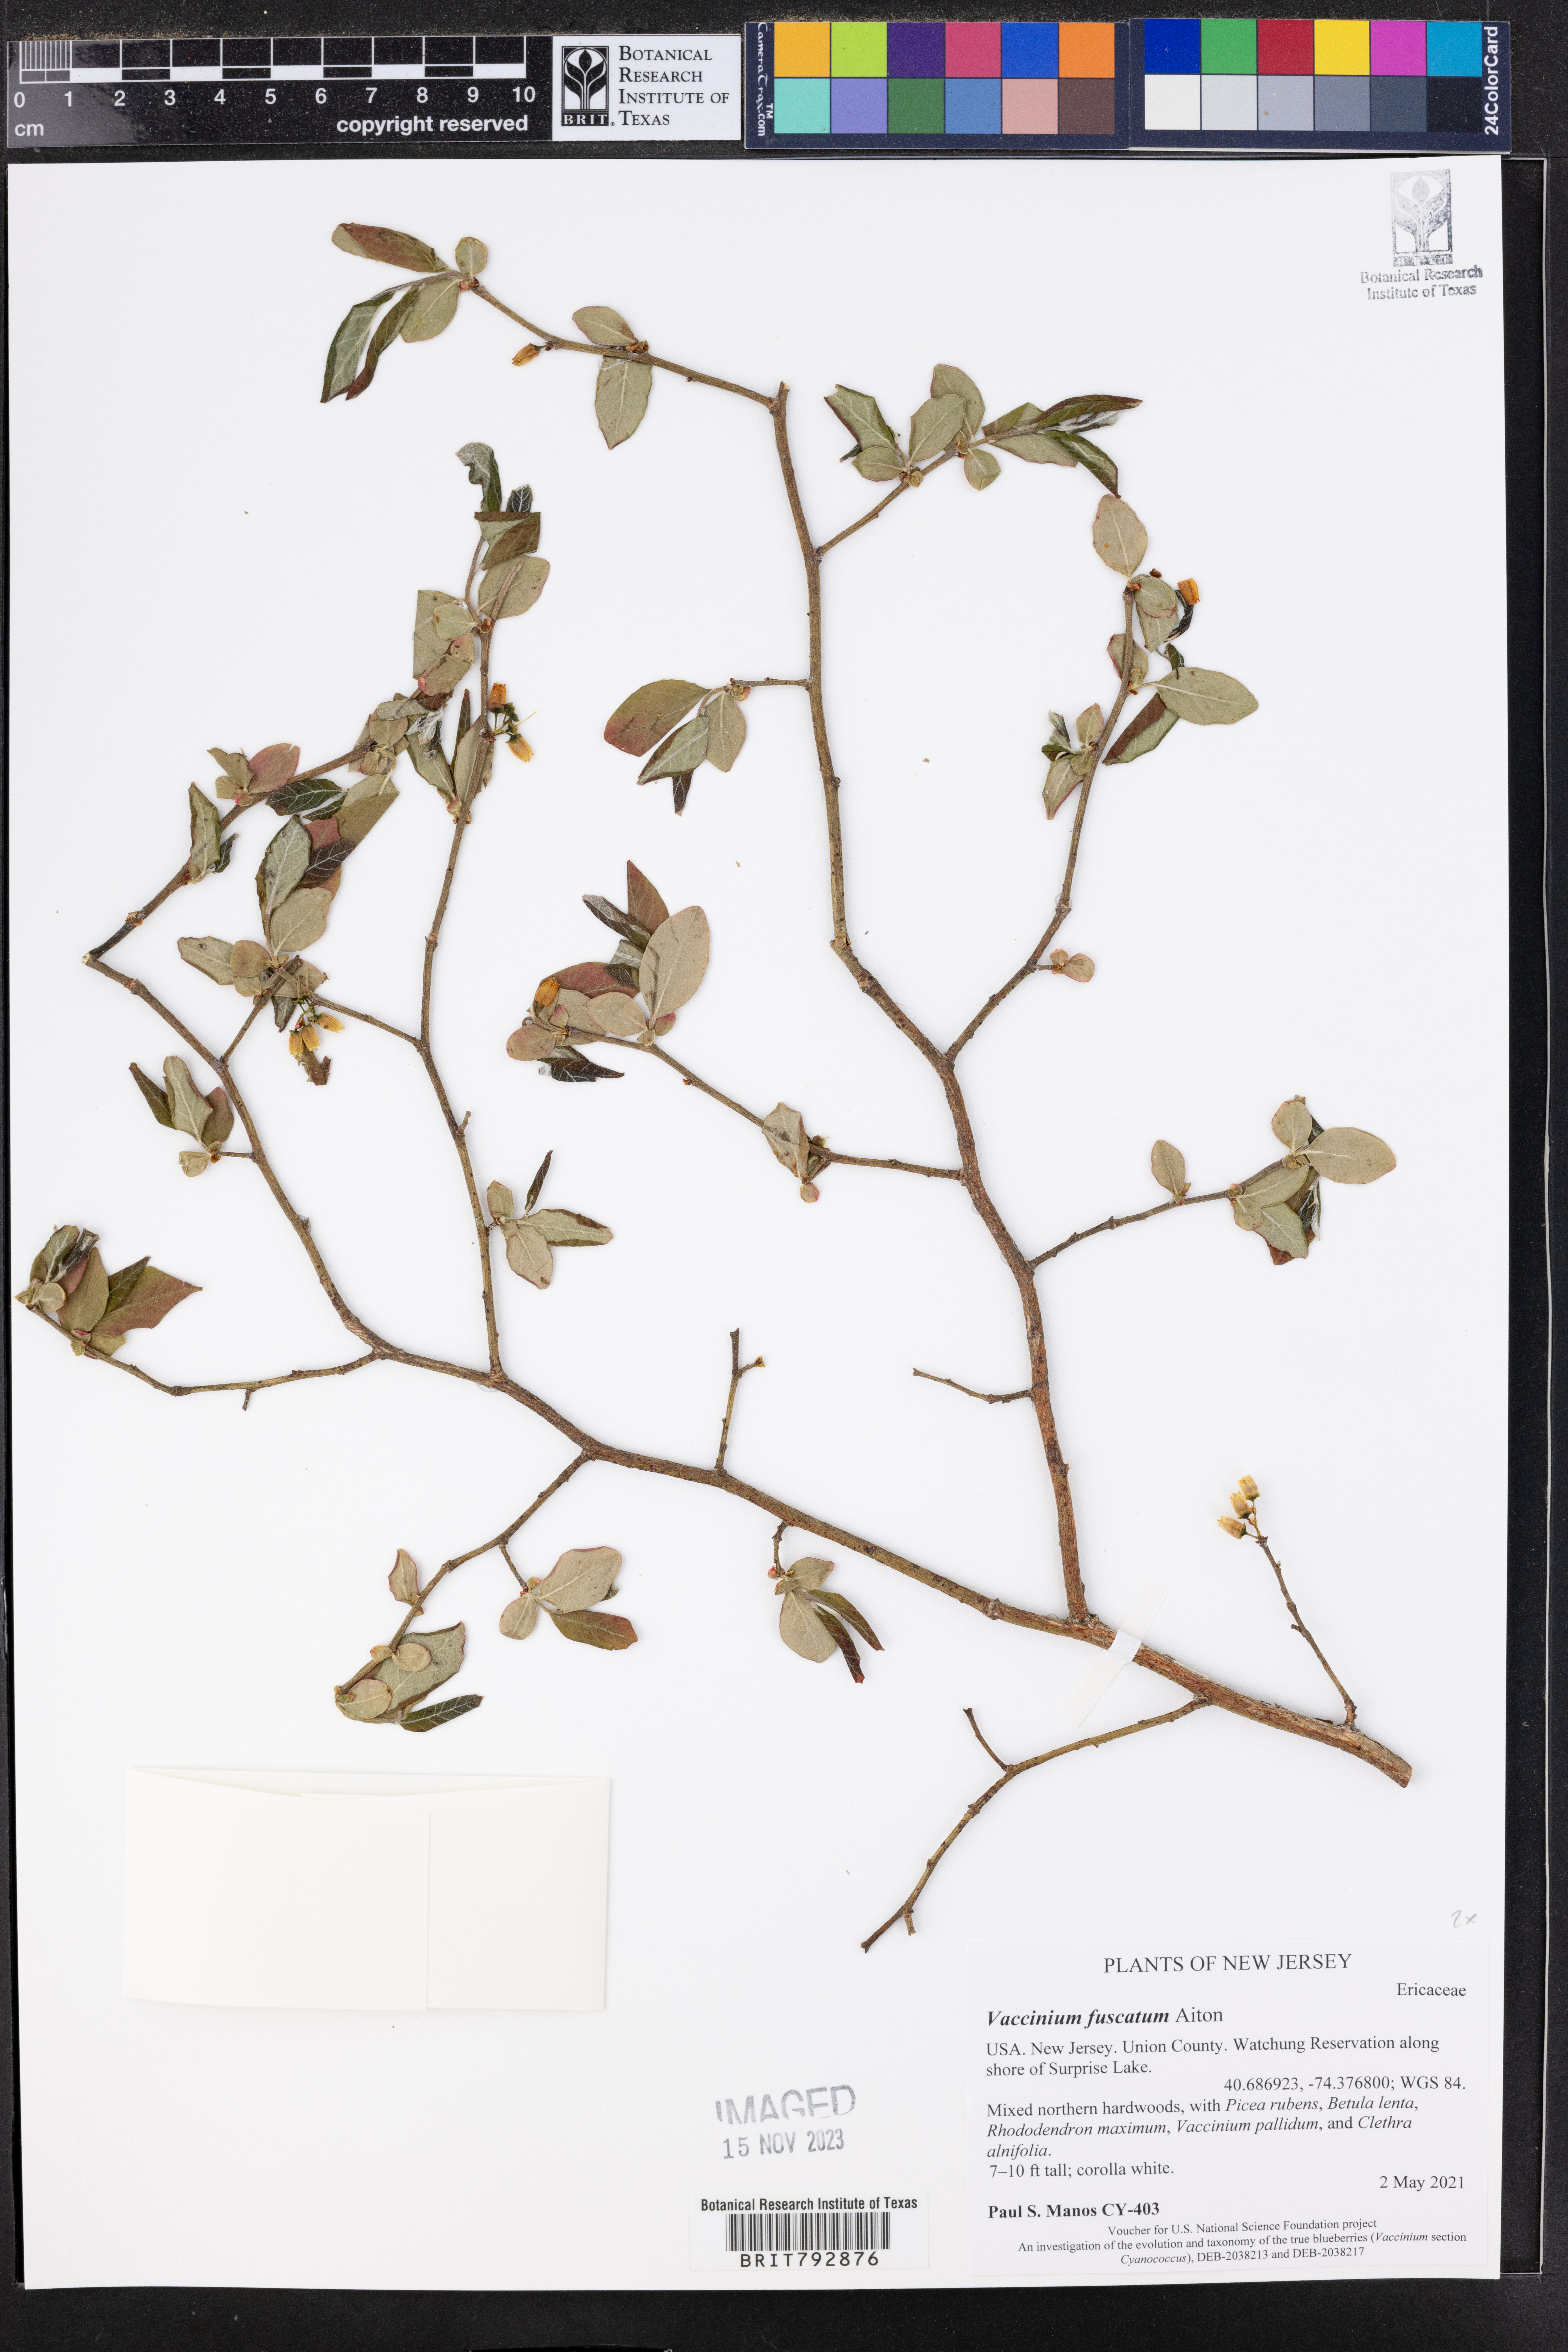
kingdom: Plantae
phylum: Tracheophyta
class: Magnoliopsida
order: Ericales
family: Ericaceae
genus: Vaccinium
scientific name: Vaccinium corymbosum
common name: Blueberry
